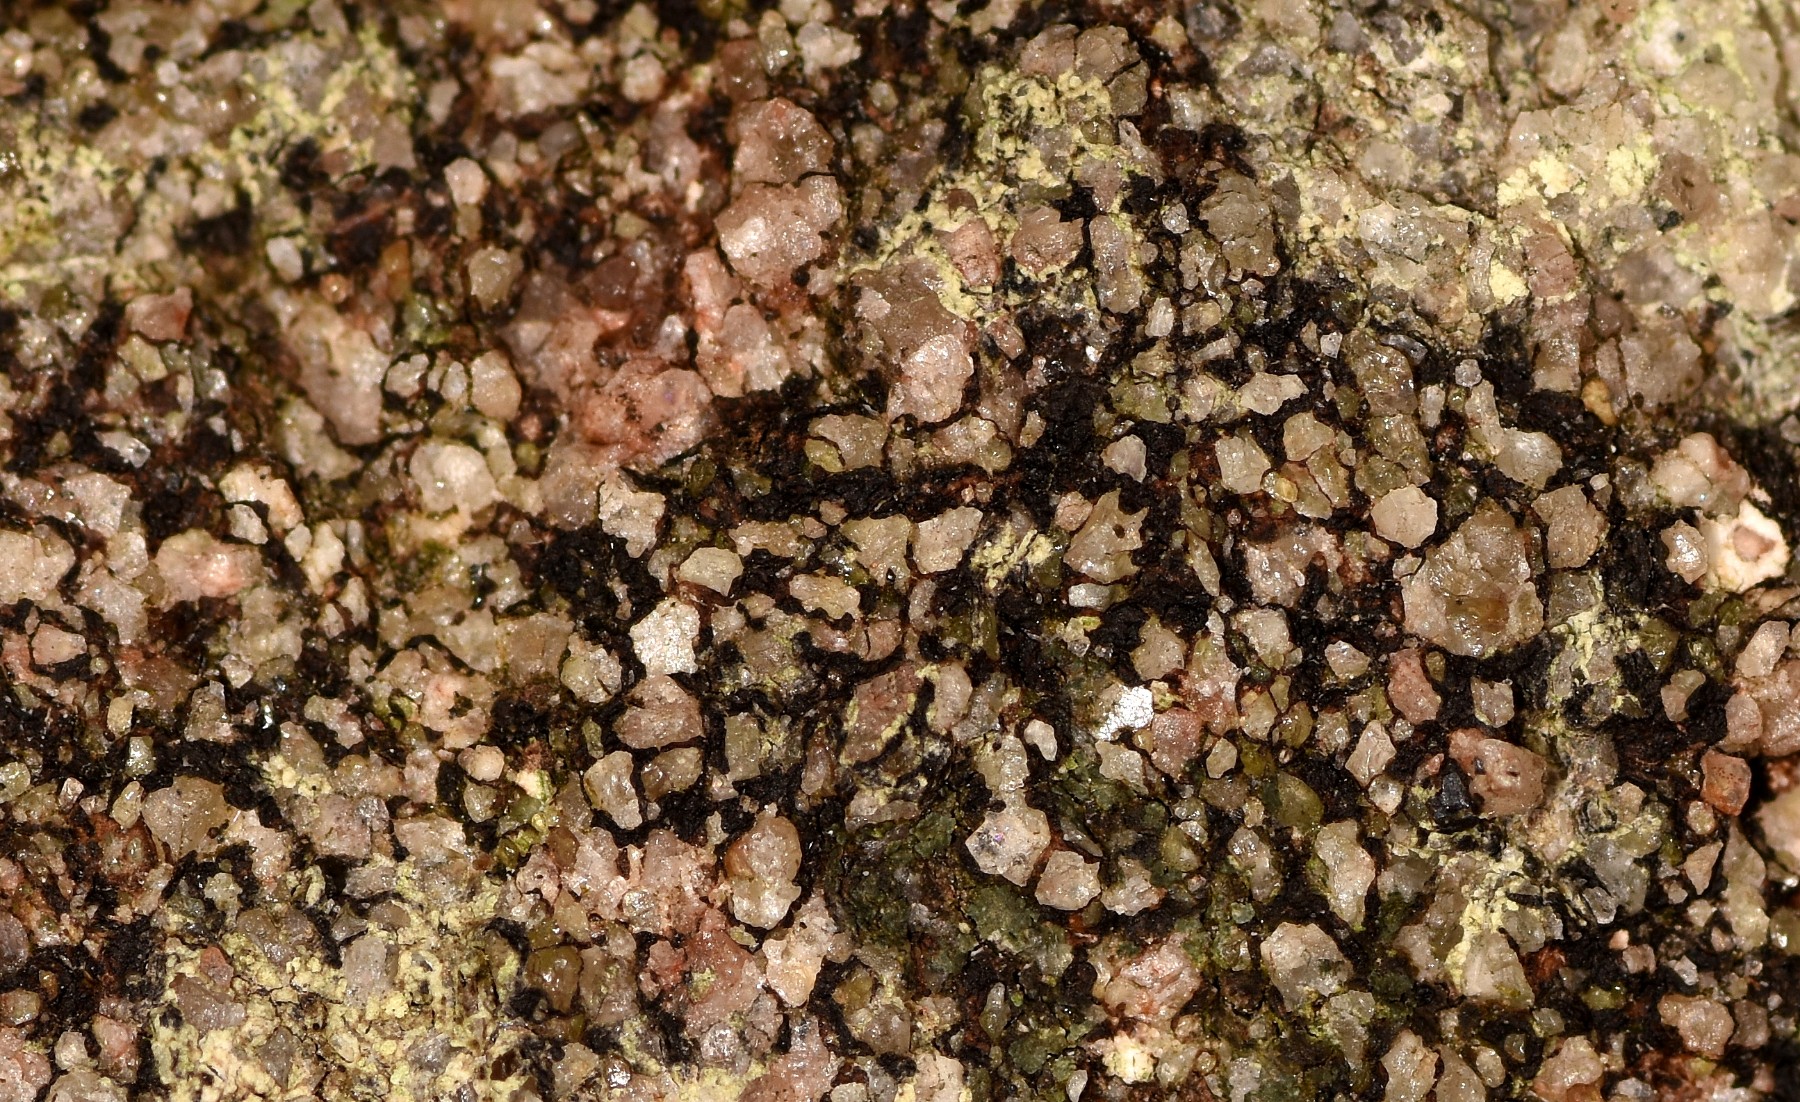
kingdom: Fungi
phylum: Ascomycota
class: Lecanoromycetes
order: Acarosporales
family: Acarosporaceae
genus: Acarospora
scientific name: Acarospora privigna
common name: sort foldekantlav
